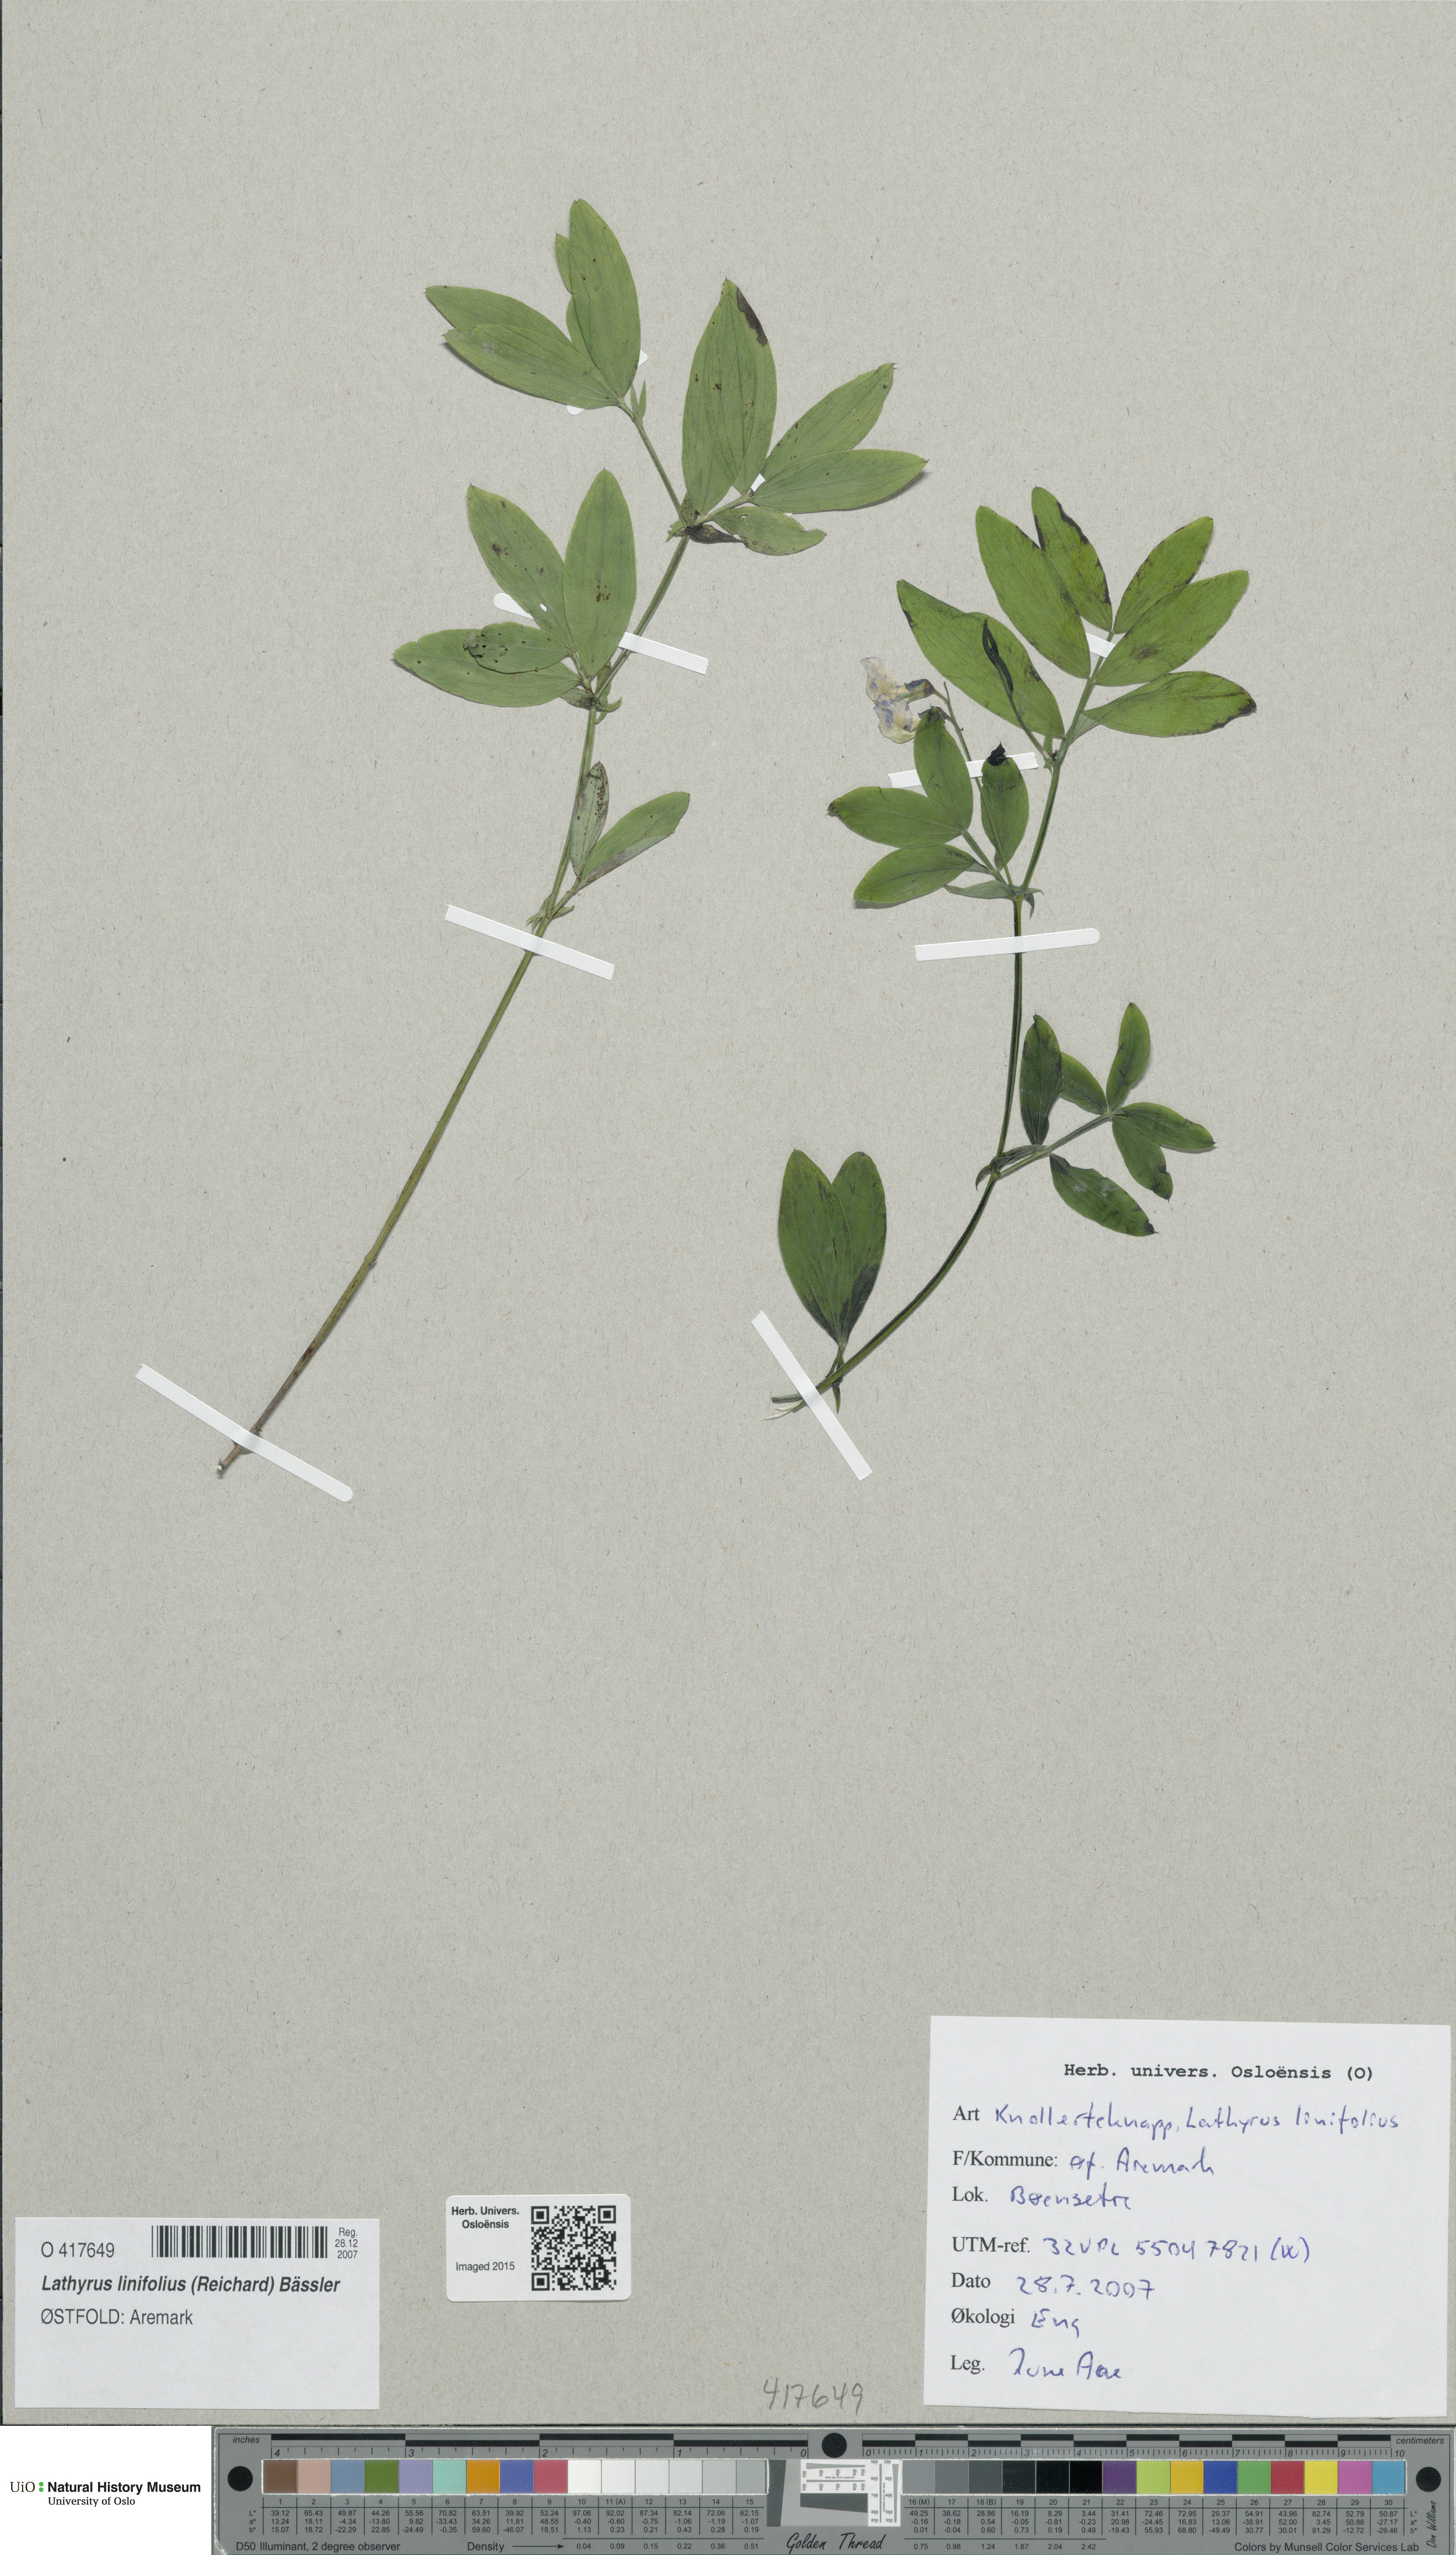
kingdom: Plantae
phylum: Tracheophyta
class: Magnoliopsida
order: Fabales
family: Fabaceae
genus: Lathyrus
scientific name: Lathyrus linifolius
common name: Bitter-vetch
